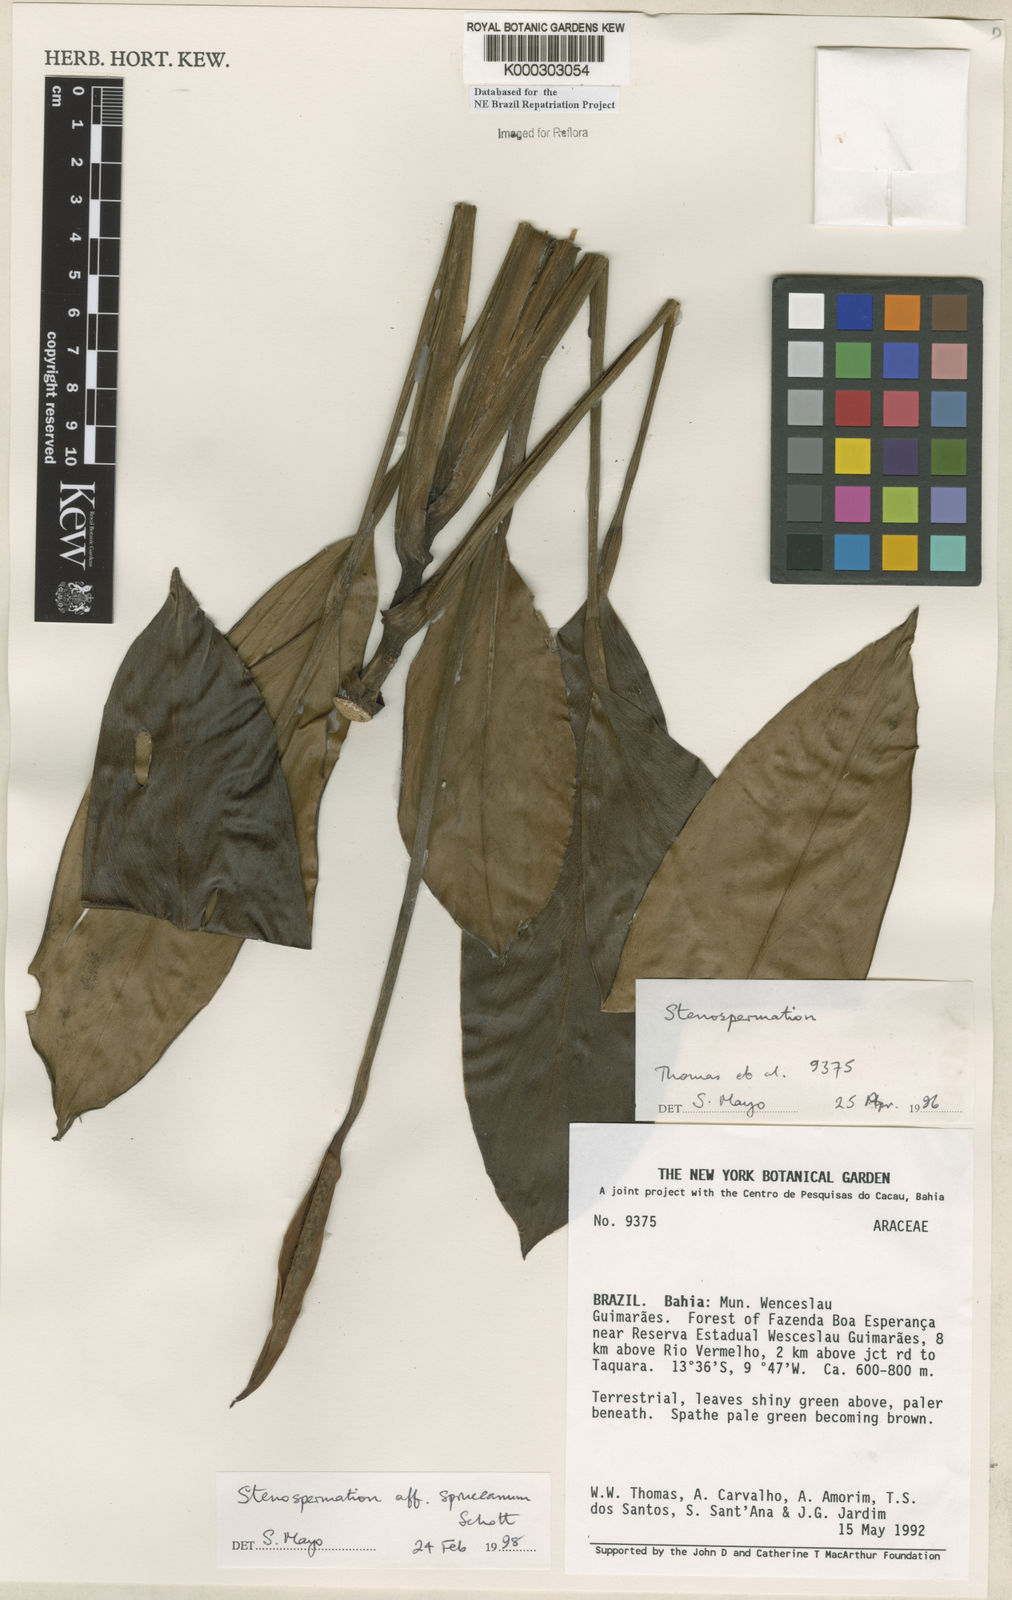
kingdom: Plantae
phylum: Tracheophyta
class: Liliopsida
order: Alismatales
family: Araceae
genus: Stenospermation
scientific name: Stenospermation spruceanum
